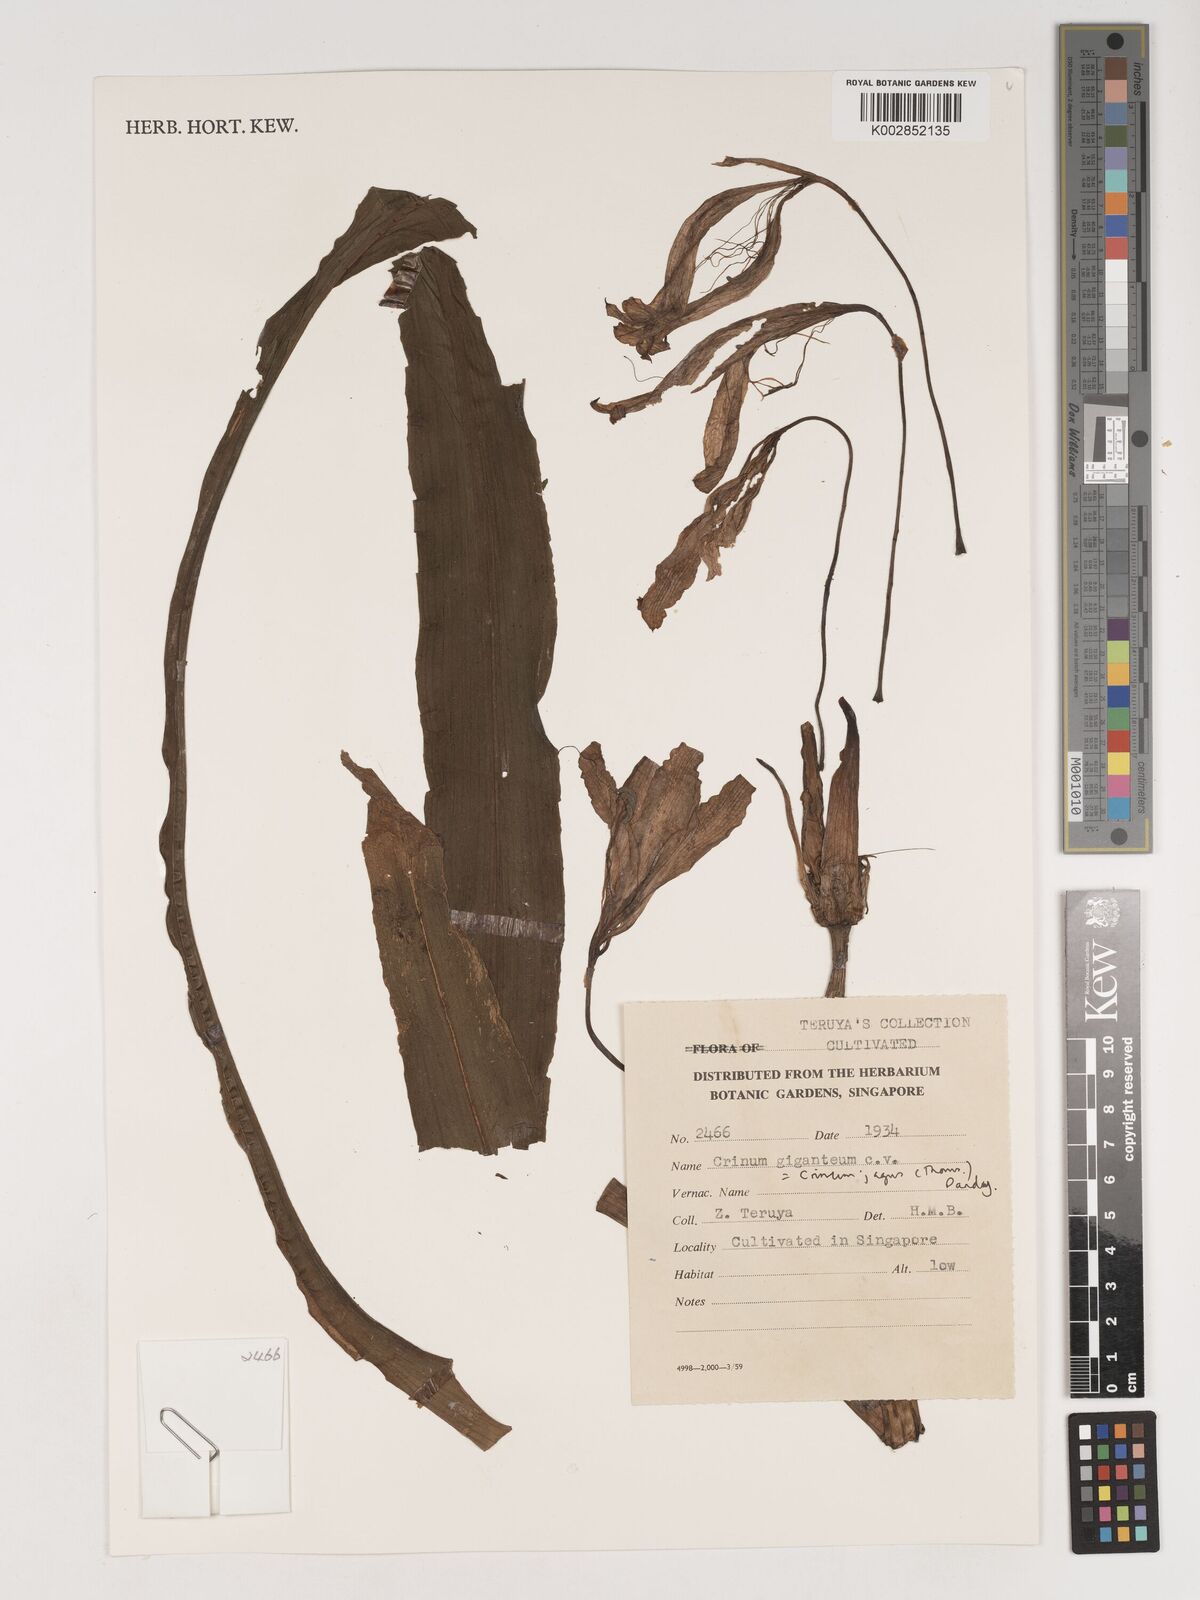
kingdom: Plantae
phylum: Tracheophyta
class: Liliopsida
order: Asparagales
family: Amaryllidaceae
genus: Crinum
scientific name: Crinum jagus
